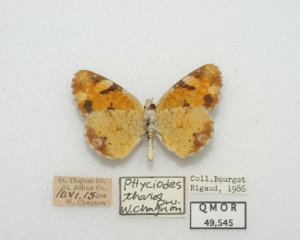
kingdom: Animalia
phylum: Arthropoda
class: Insecta
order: Lepidoptera
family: Nymphalidae
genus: Phyciodes
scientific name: Phyciodes tharos
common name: Northern Crescent
